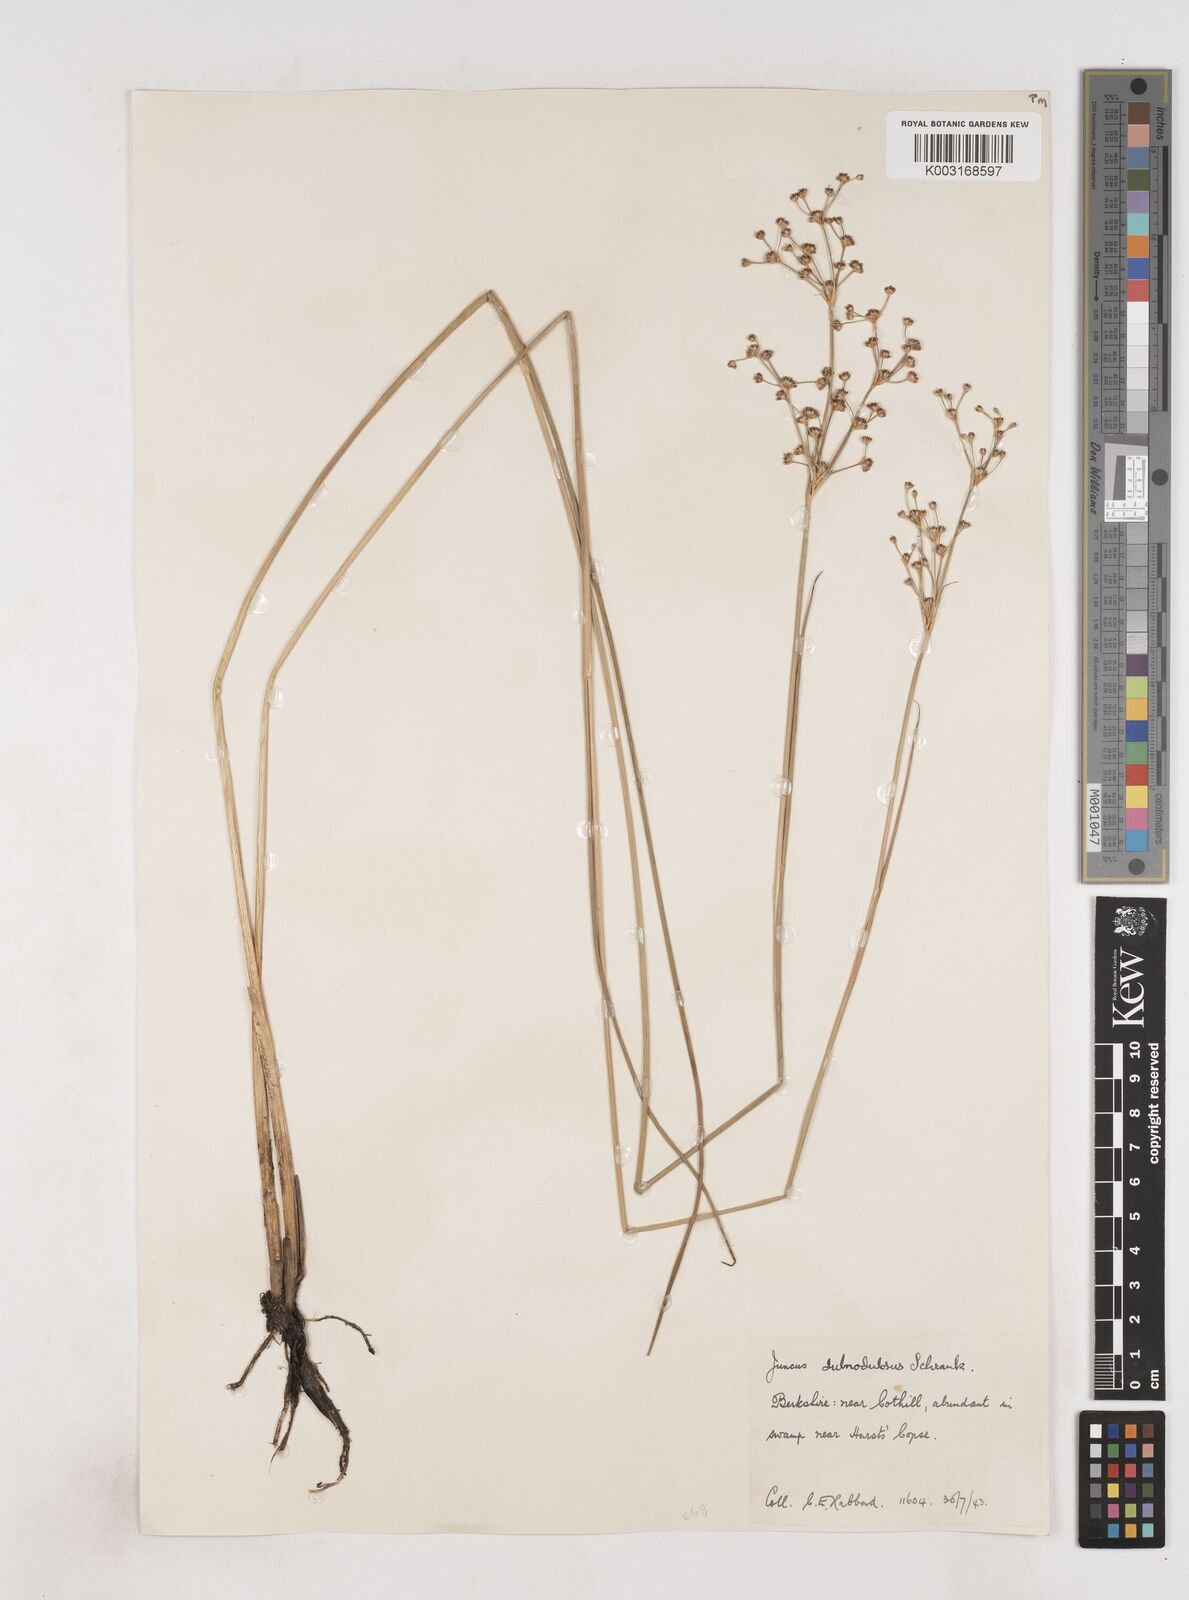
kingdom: Plantae
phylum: Tracheophyta
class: Liliopsida
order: Poales
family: Juncaceae
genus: Juncus
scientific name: Juncus subnodulosus
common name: Blunt-flowered rush
